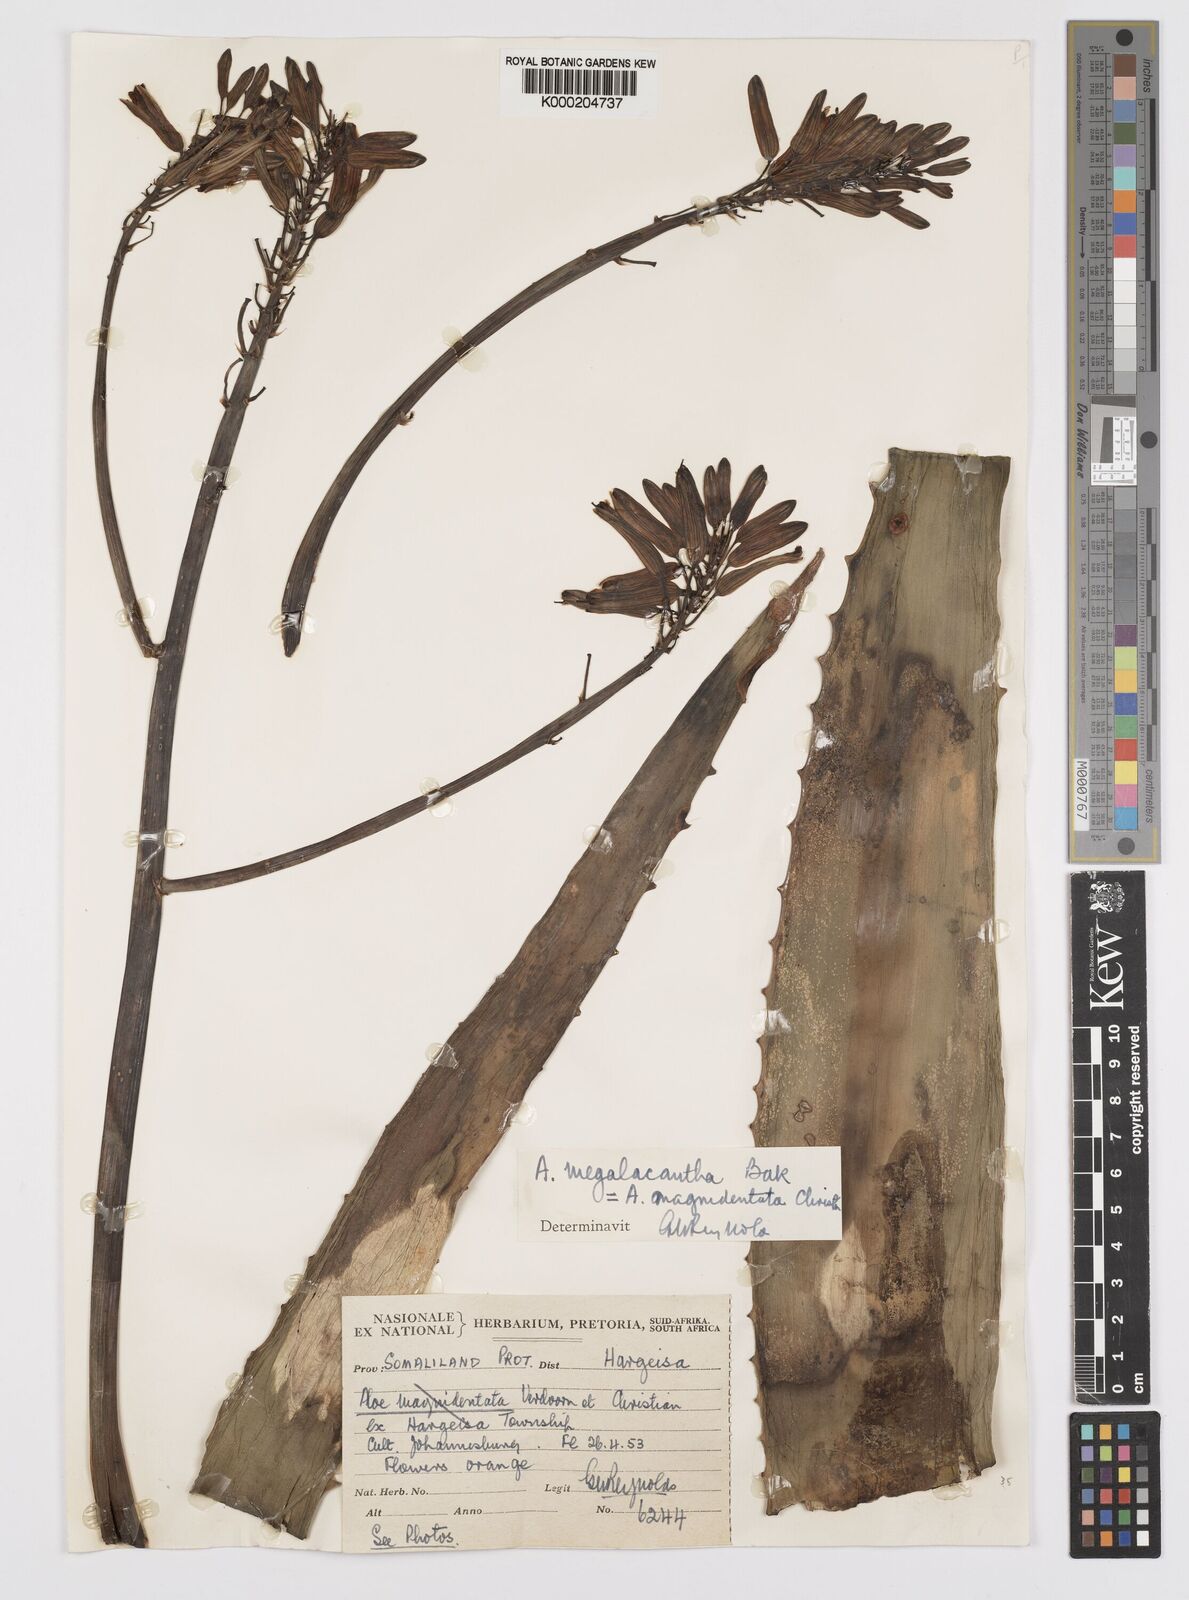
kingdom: Plantae
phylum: Tracheophyta
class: Liliopsida
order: Asparagales
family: Asphodelaceae
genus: Aloe
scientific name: Aloe megalacantha
